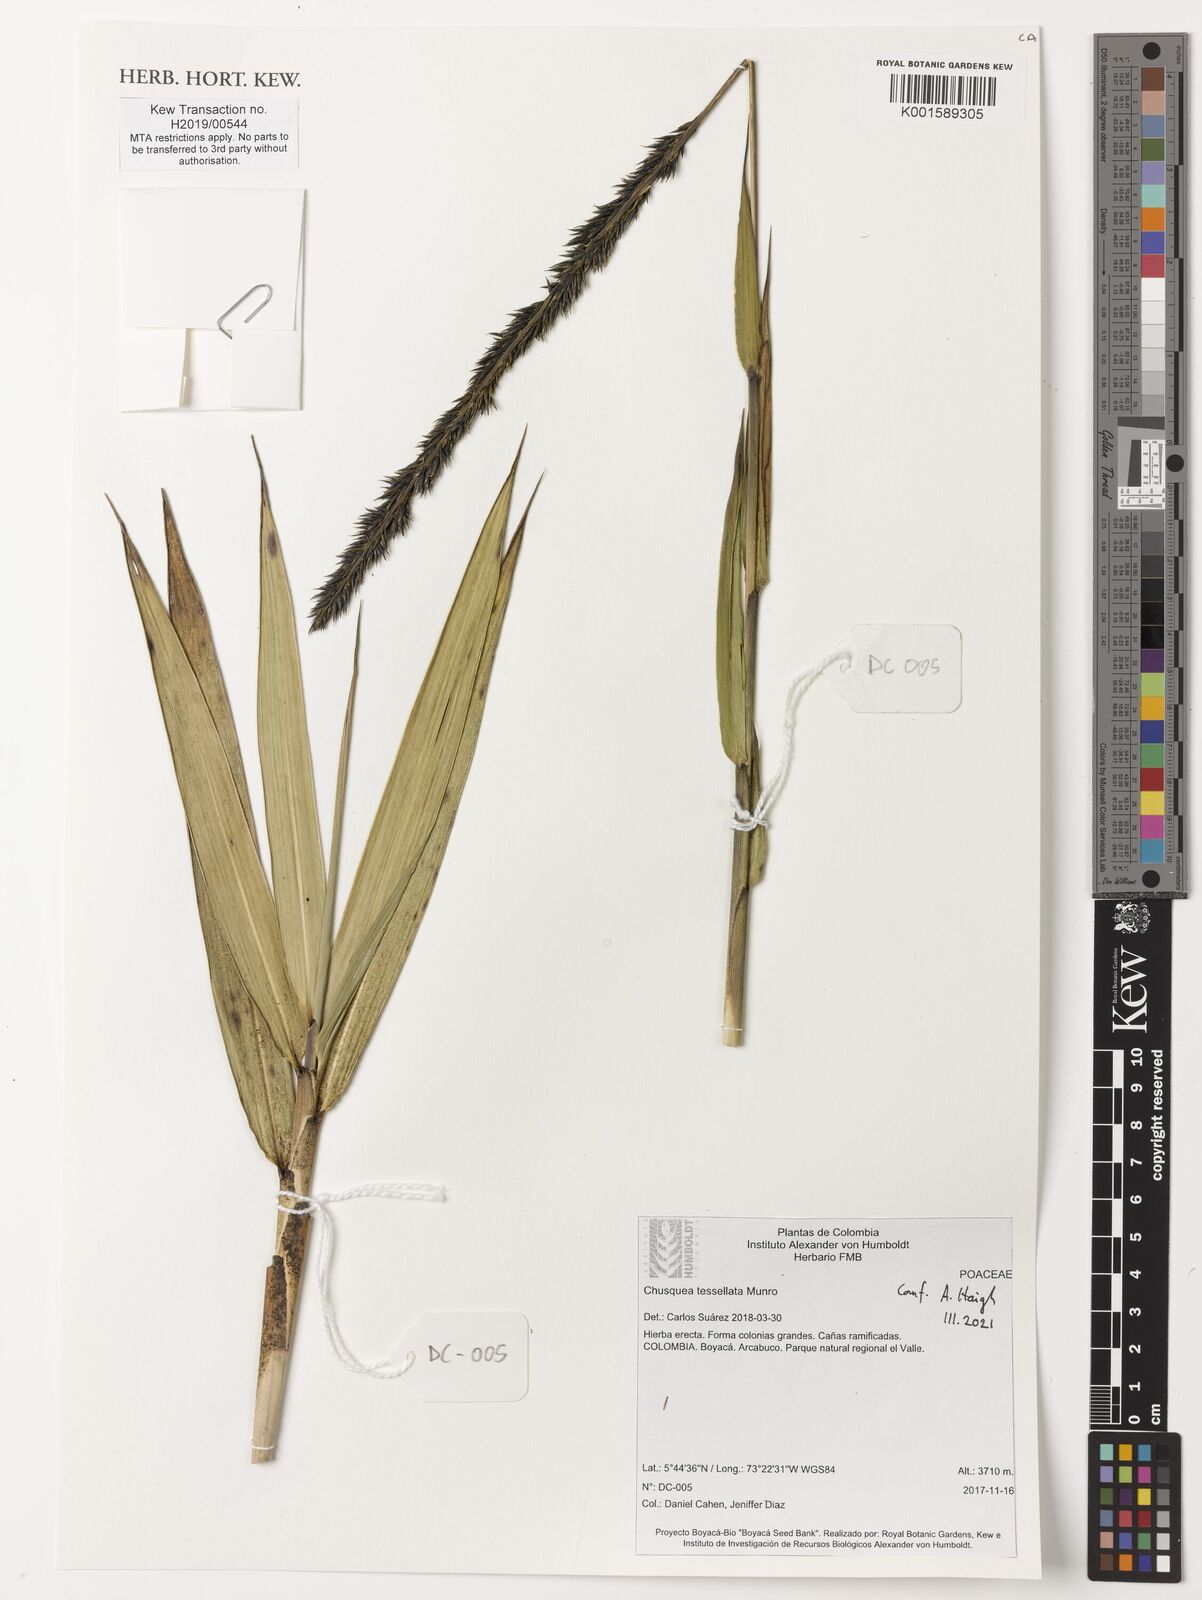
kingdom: Plantae
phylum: Tracheophyta
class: Liliopsida
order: Poales
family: Poaceae
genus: Chusquea
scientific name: Chusquea tessellata
